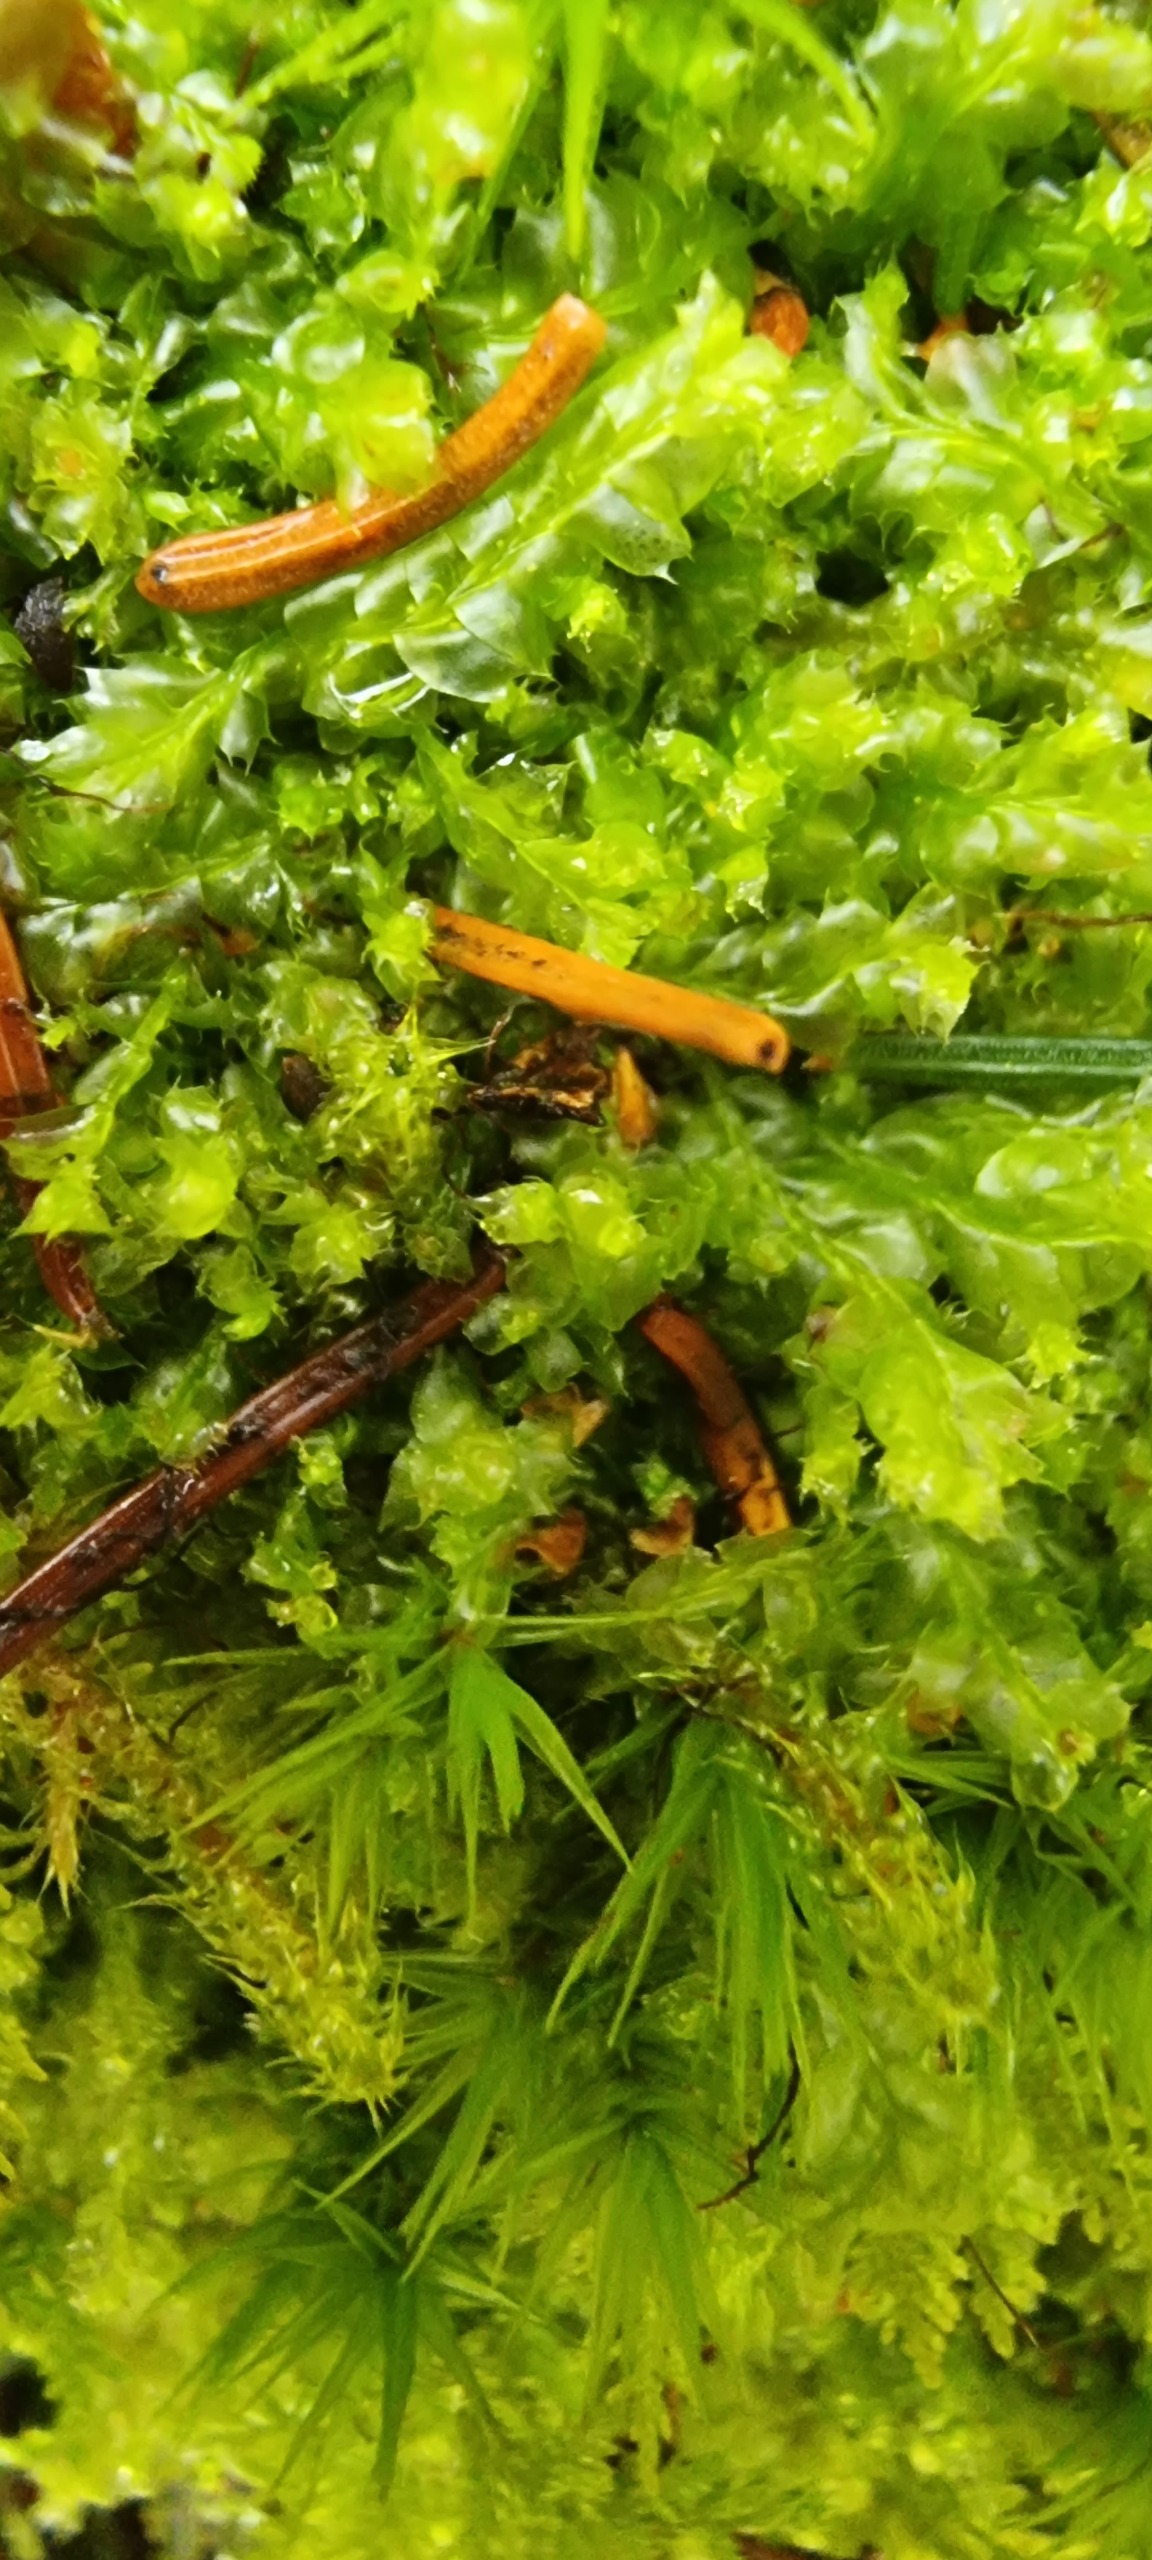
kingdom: Plantae
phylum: Marchantiophyta
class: Jungermanniopsida
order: Jungermanniales
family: Lophocoleaceae
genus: Lophocolea
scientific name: Lophocolea bidentata
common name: Sylspidset kamsvøb
